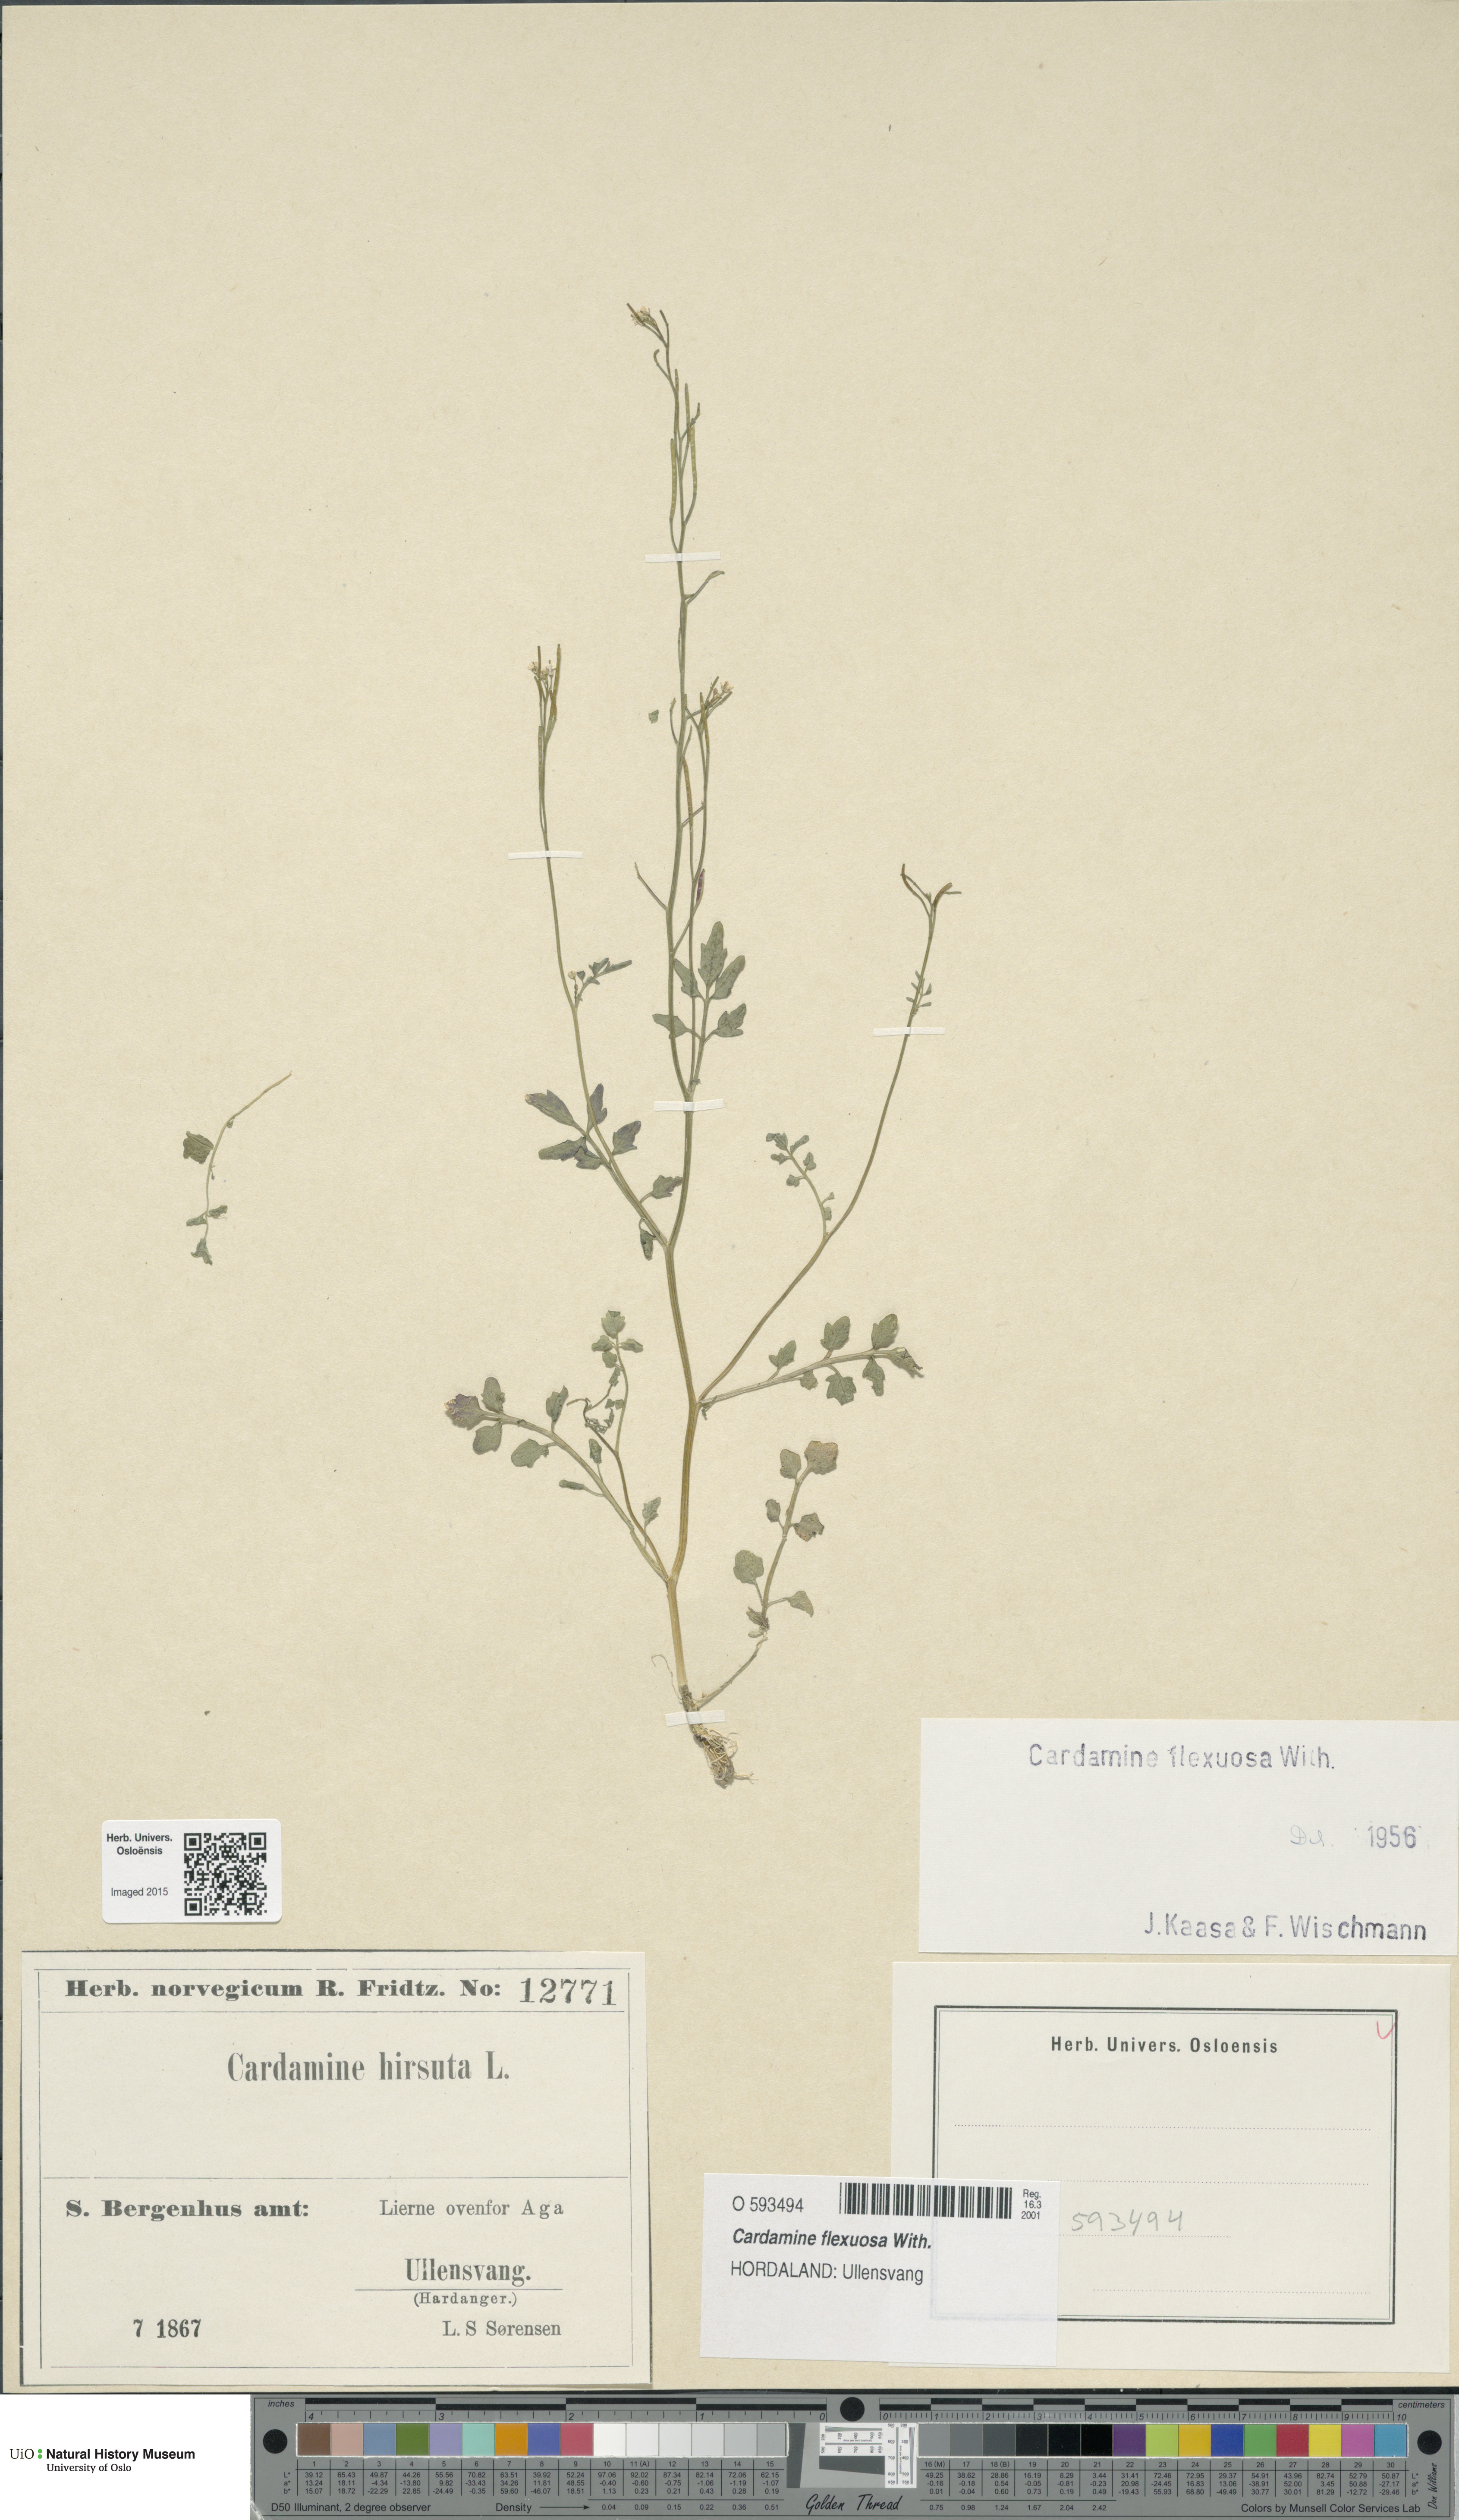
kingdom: Plantae
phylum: Tracheophyta
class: Magnoliopsida
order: Brassicales
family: Brassicaceae
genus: Cardamine
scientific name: Cardamine flexuosa
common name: Woodland bittercress
